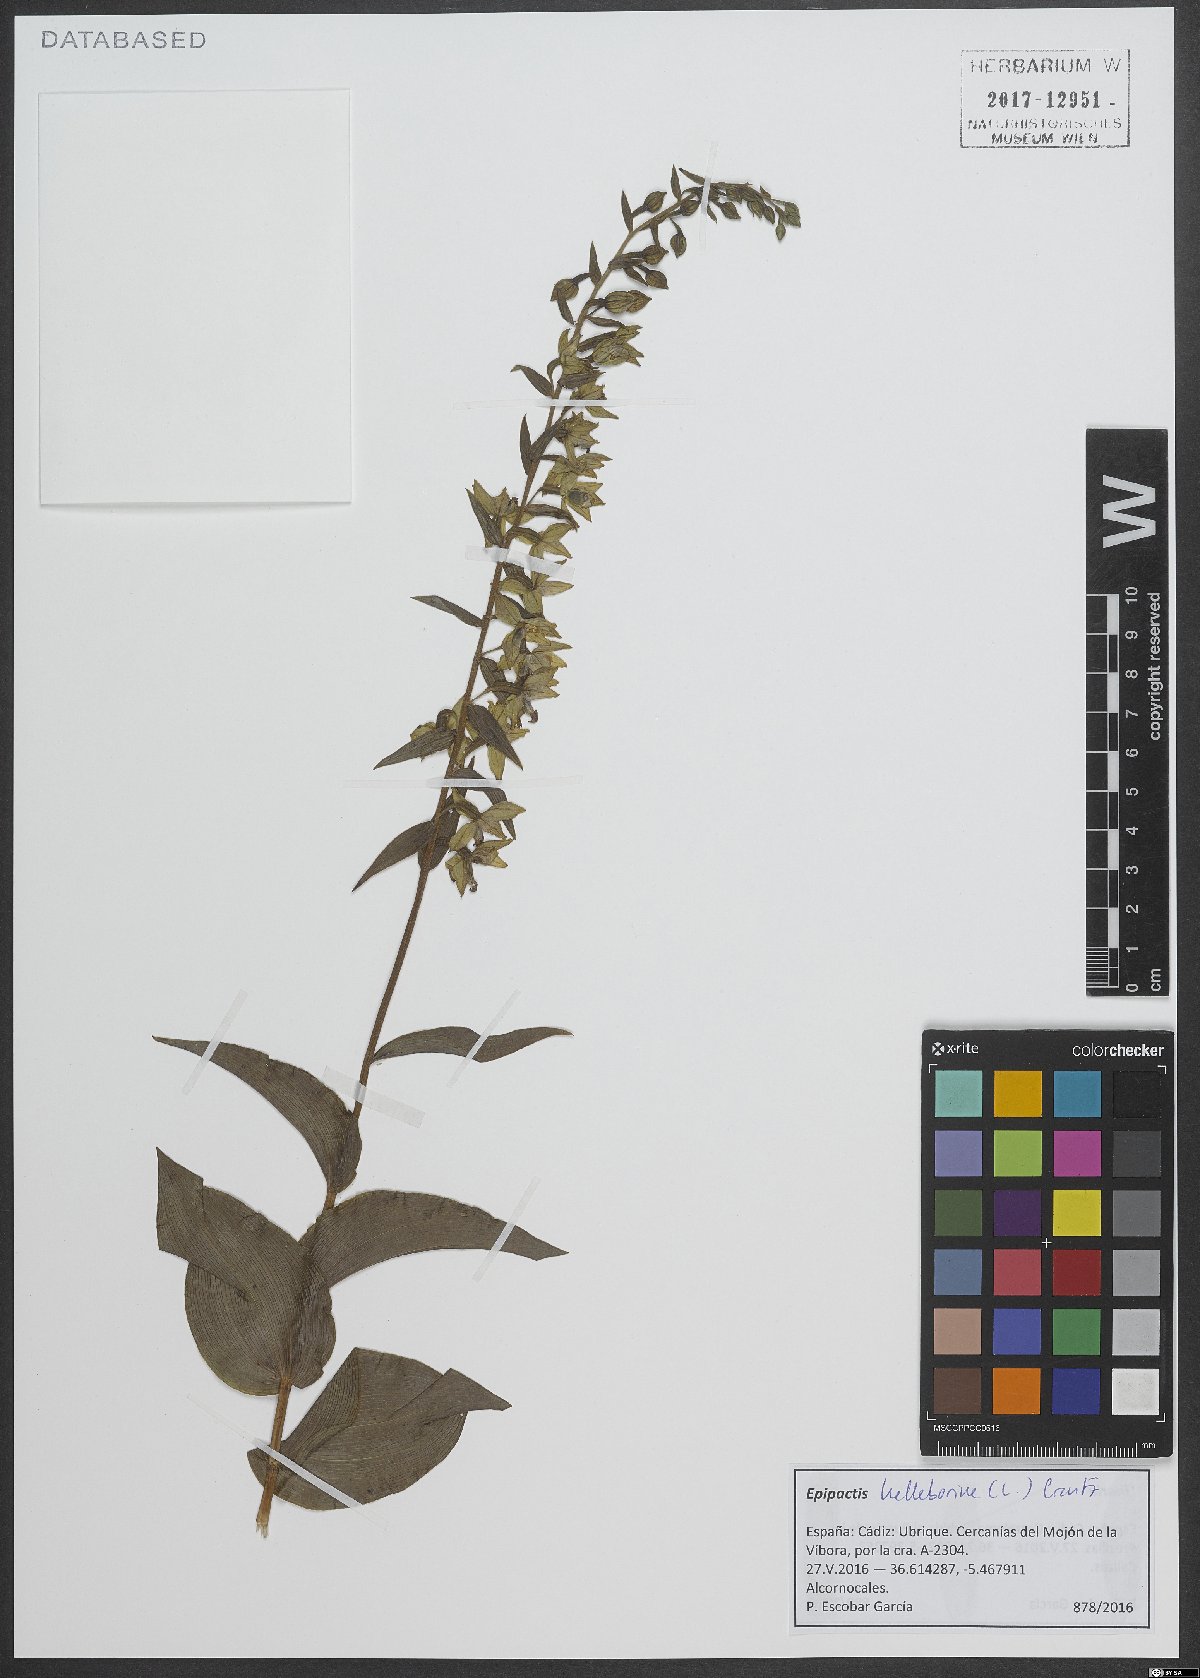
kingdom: Plantae
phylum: Tracheophyta
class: Liliopsida
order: Asparagales
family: Orchidaceae
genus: Epipactis
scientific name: Epipactis helleborine
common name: Broad-leaved helleborine
